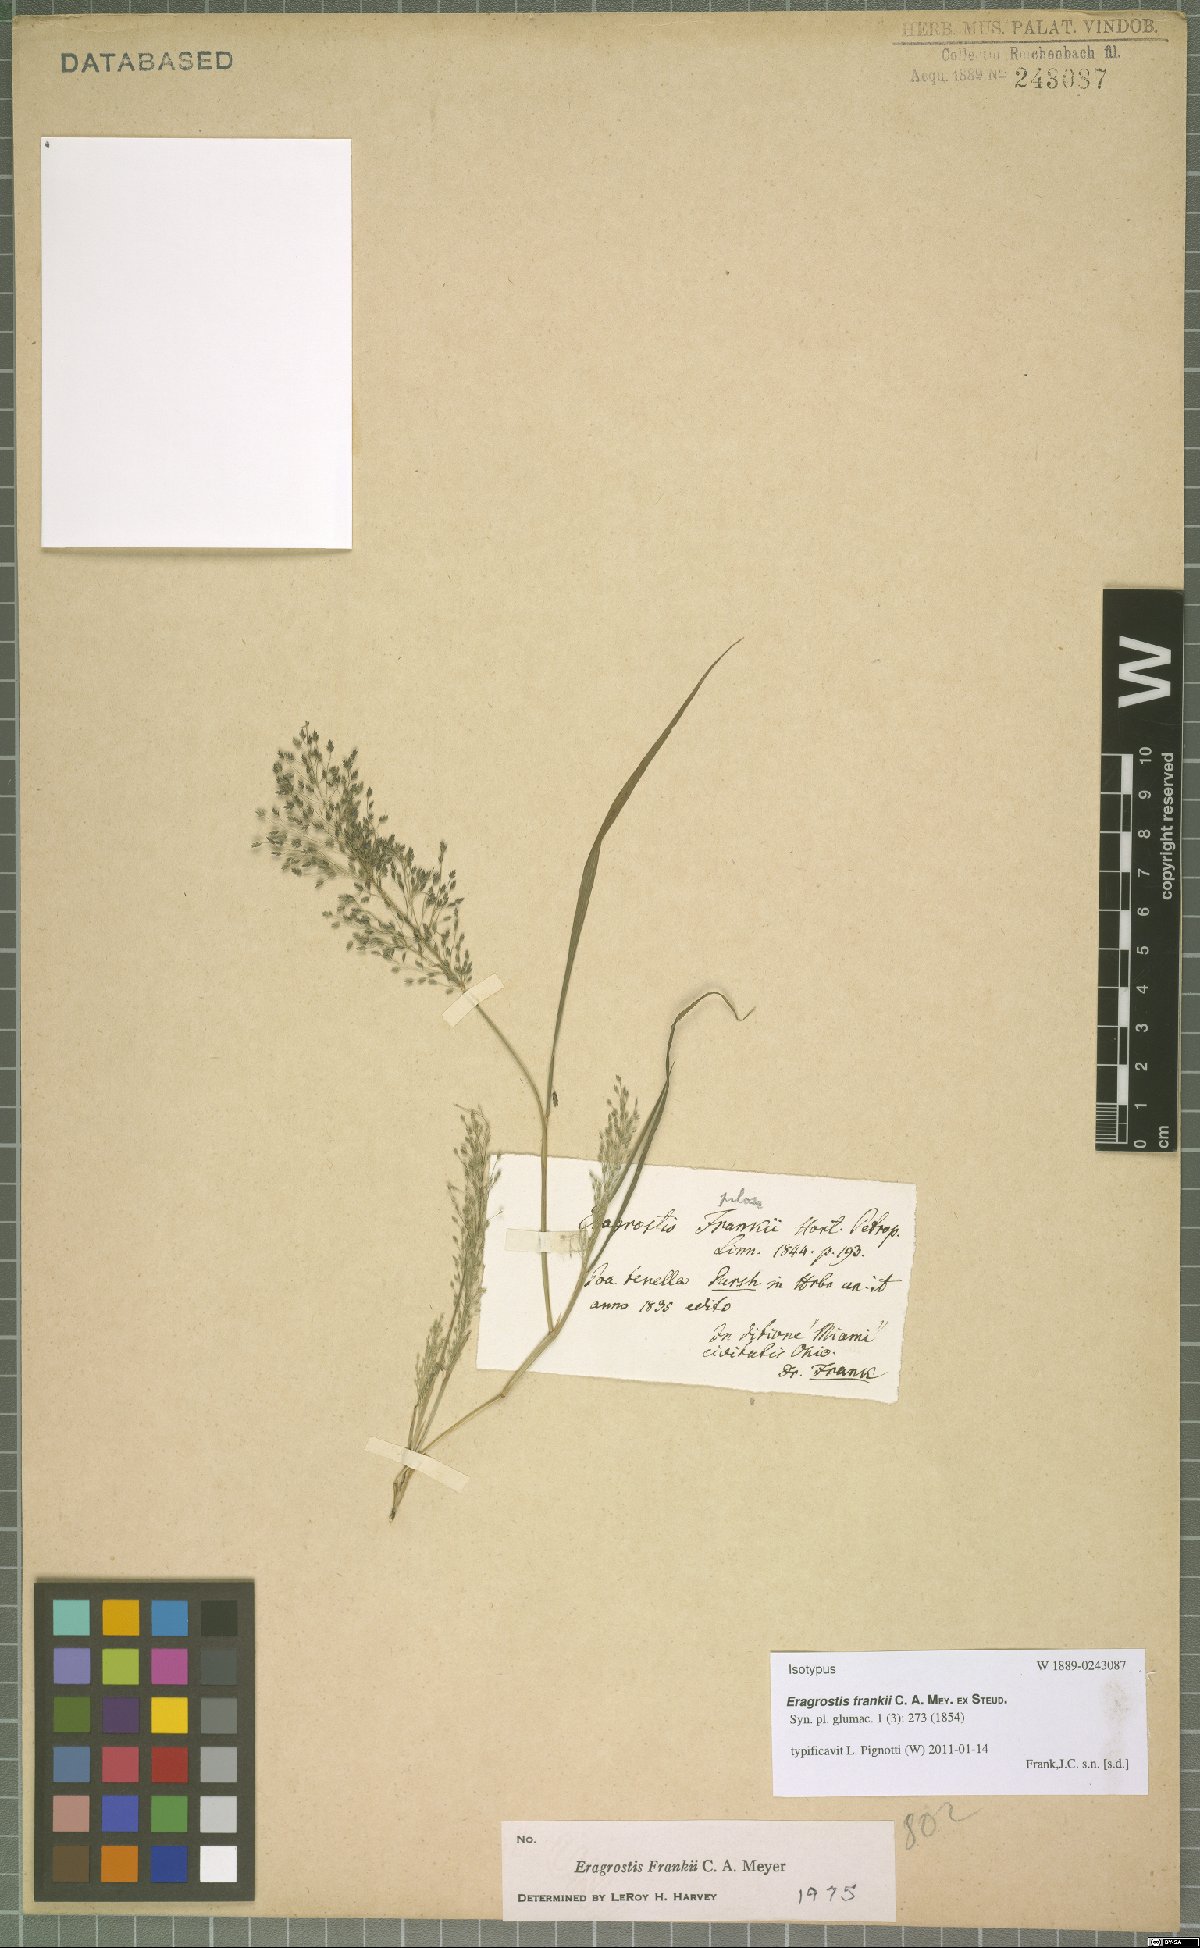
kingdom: Plantae
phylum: Tracheophyta
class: Liliopsida
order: Poales
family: Poaceae
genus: Eragrostis
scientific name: Eragrostis frankii
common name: Frank's lovegrass
